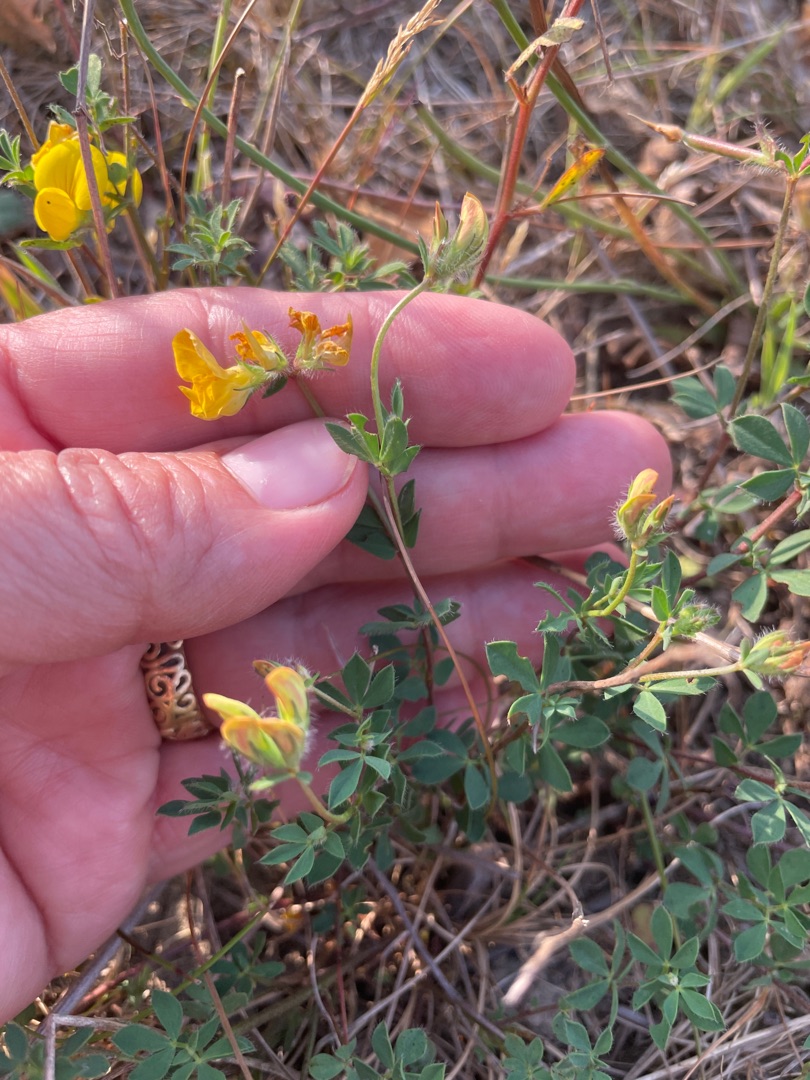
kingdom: Plantae
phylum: Tracheophyta
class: Magnoliopsida
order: Fabales
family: Fabaceae
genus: Lotus
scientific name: Lotus corniculatus
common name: Almindelig kællingetand
